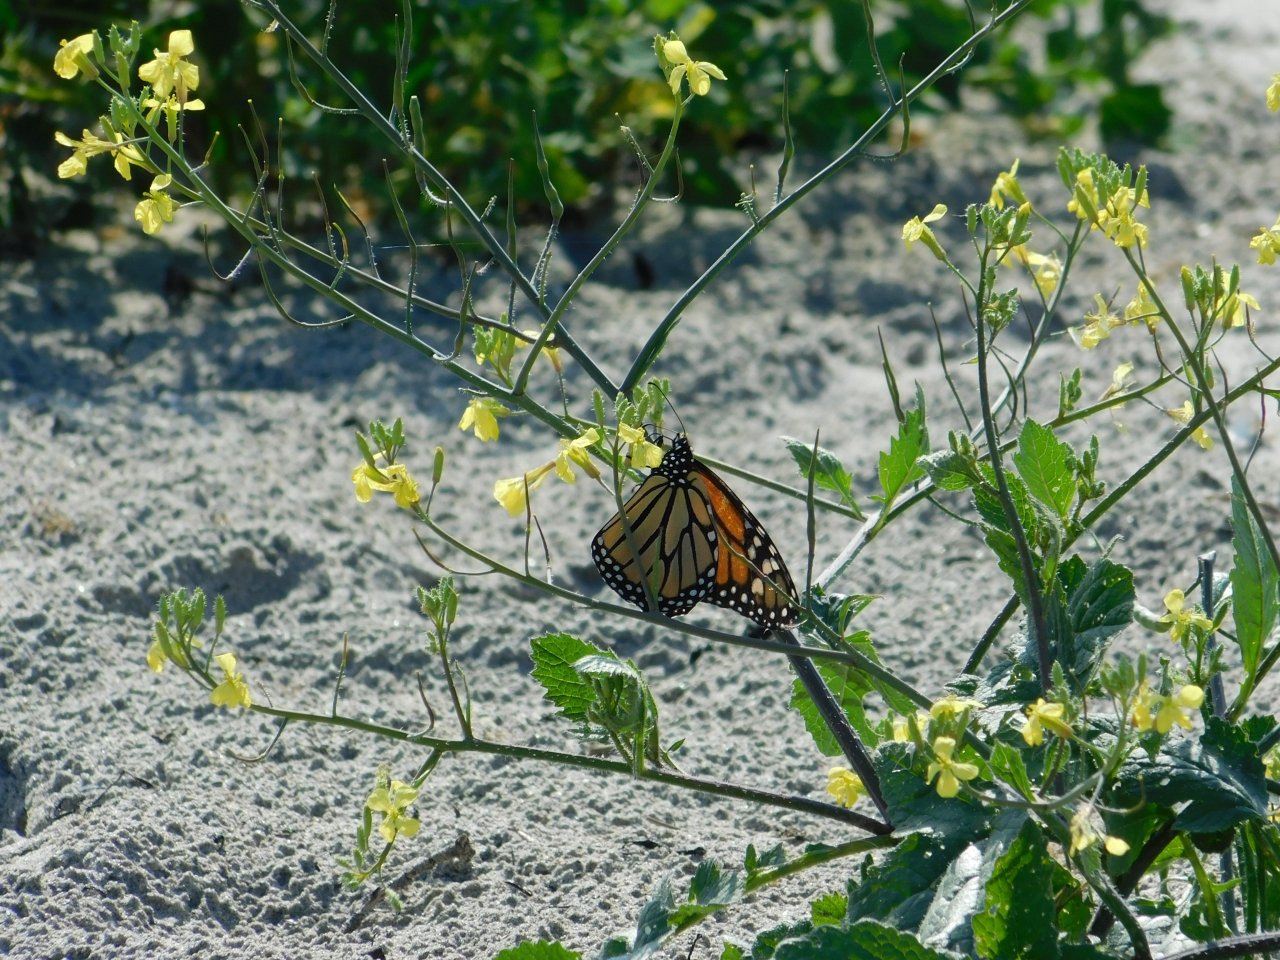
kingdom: Animalia
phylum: Arthropoda
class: Insecta
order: Lepidoptera
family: Nymphalidae
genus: Danaus
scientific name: Danaus plexippus
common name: Monarch
